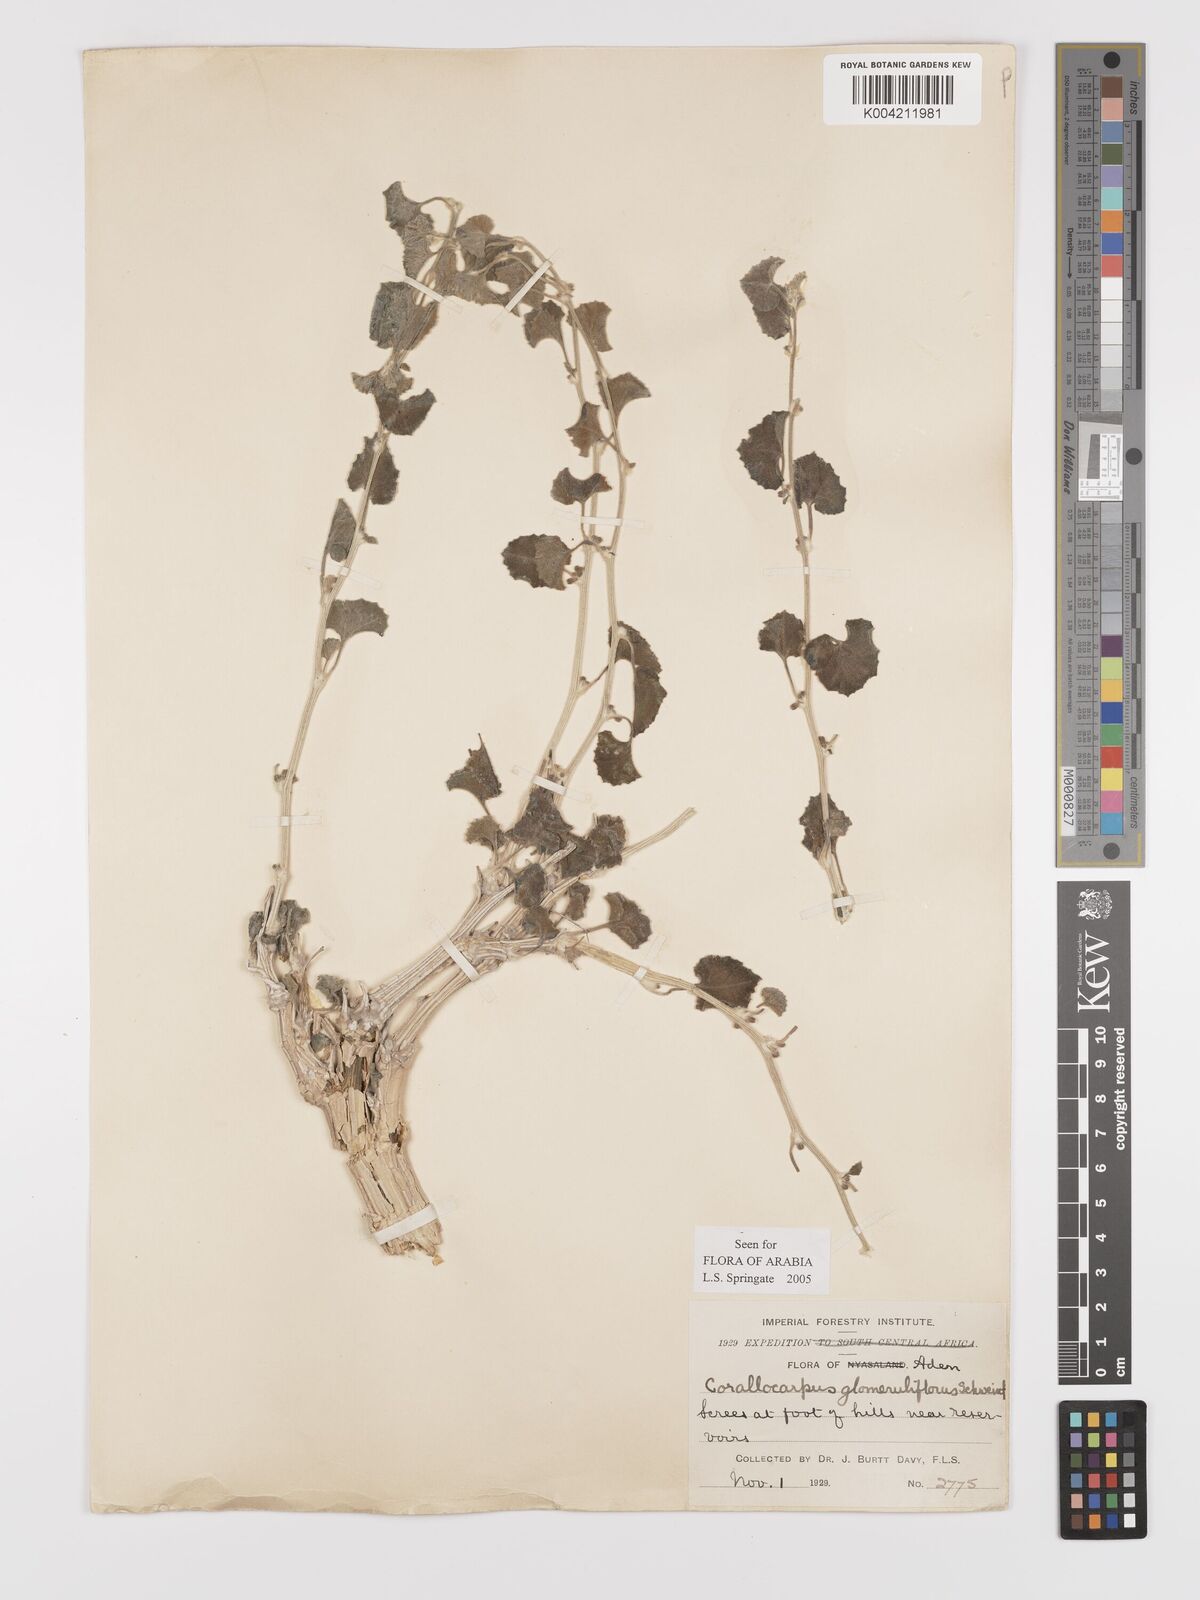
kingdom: Plantae
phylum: Tracheophyta
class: Magnoliopsida
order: Cucurbitales
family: Cucurbitaceae
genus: Corallocarpus
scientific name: Corallocarpus glomeruliflorus
